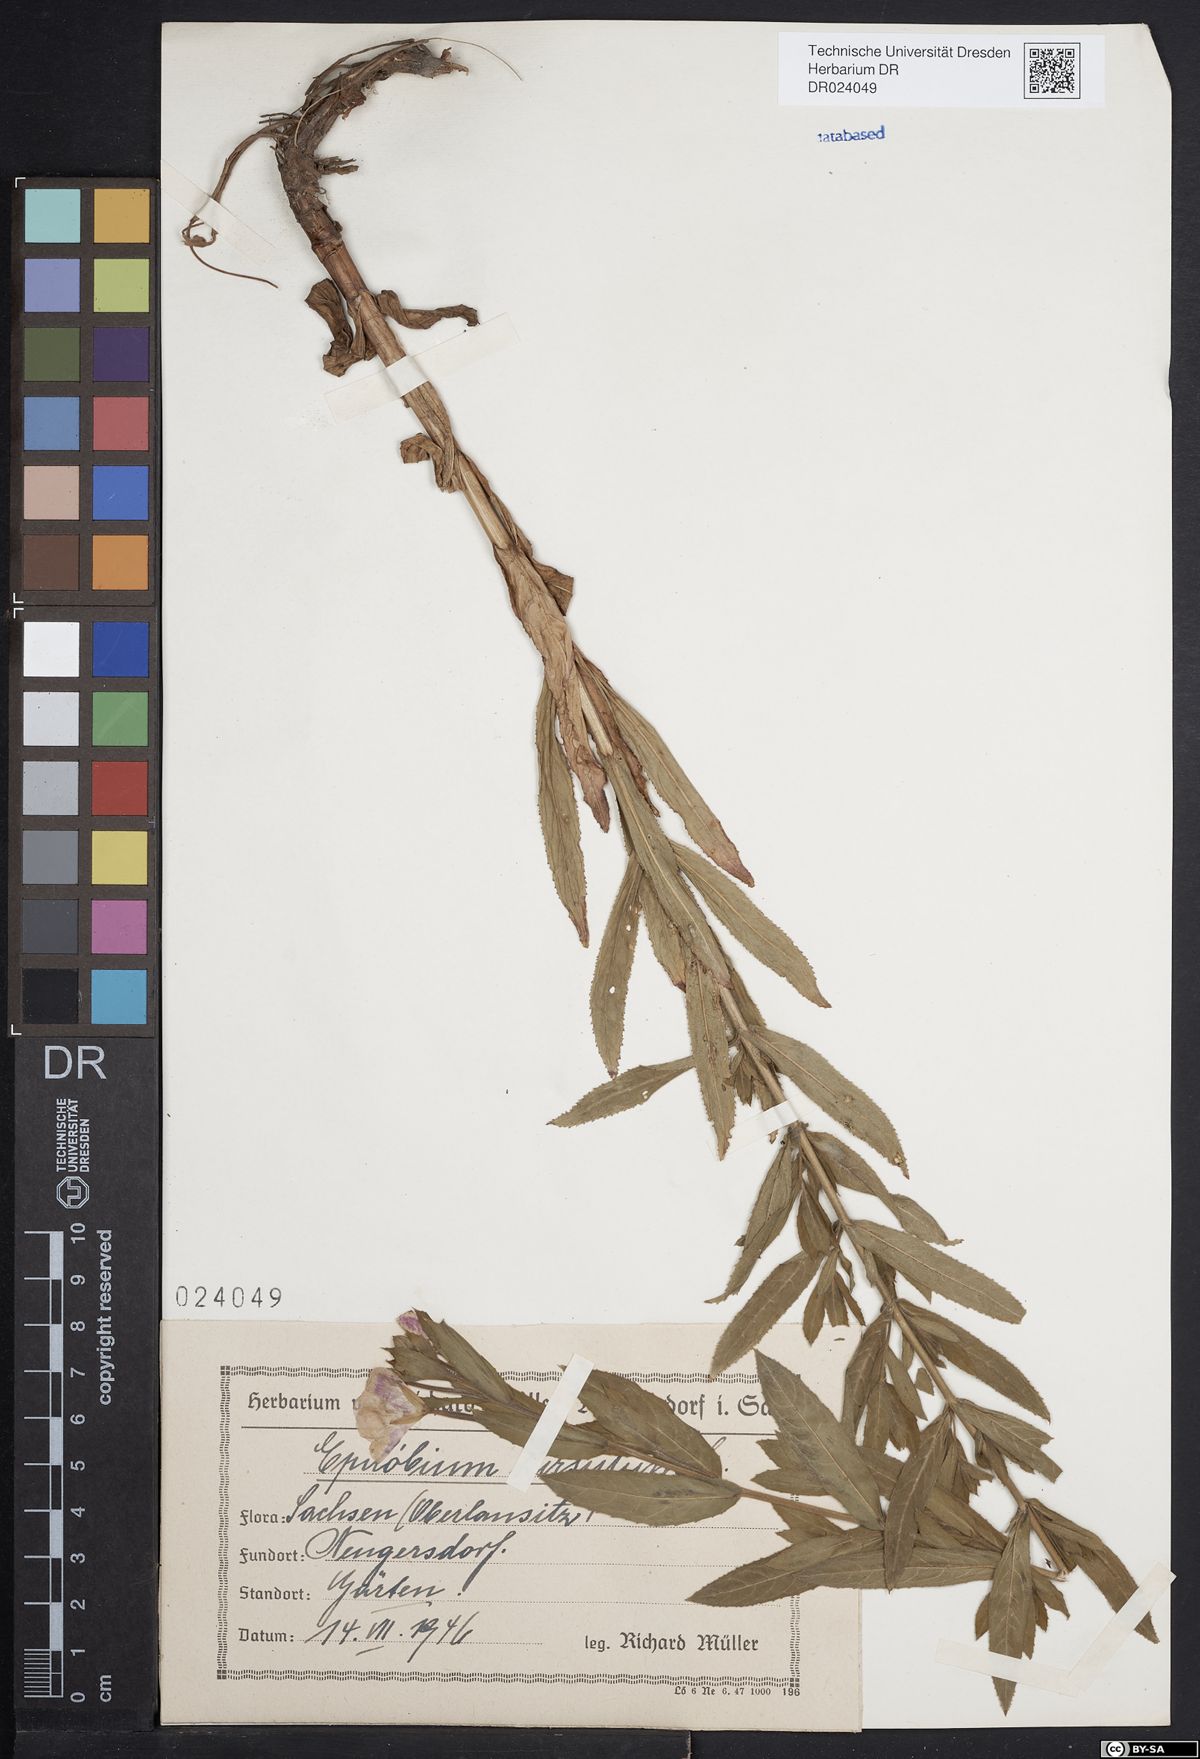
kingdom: Plantae
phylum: Tracheophyta
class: Magnoliopsida
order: Myrtales
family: Onagraceae
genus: Epilobium
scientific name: Epilobium hirsutum
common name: Great willowherb
